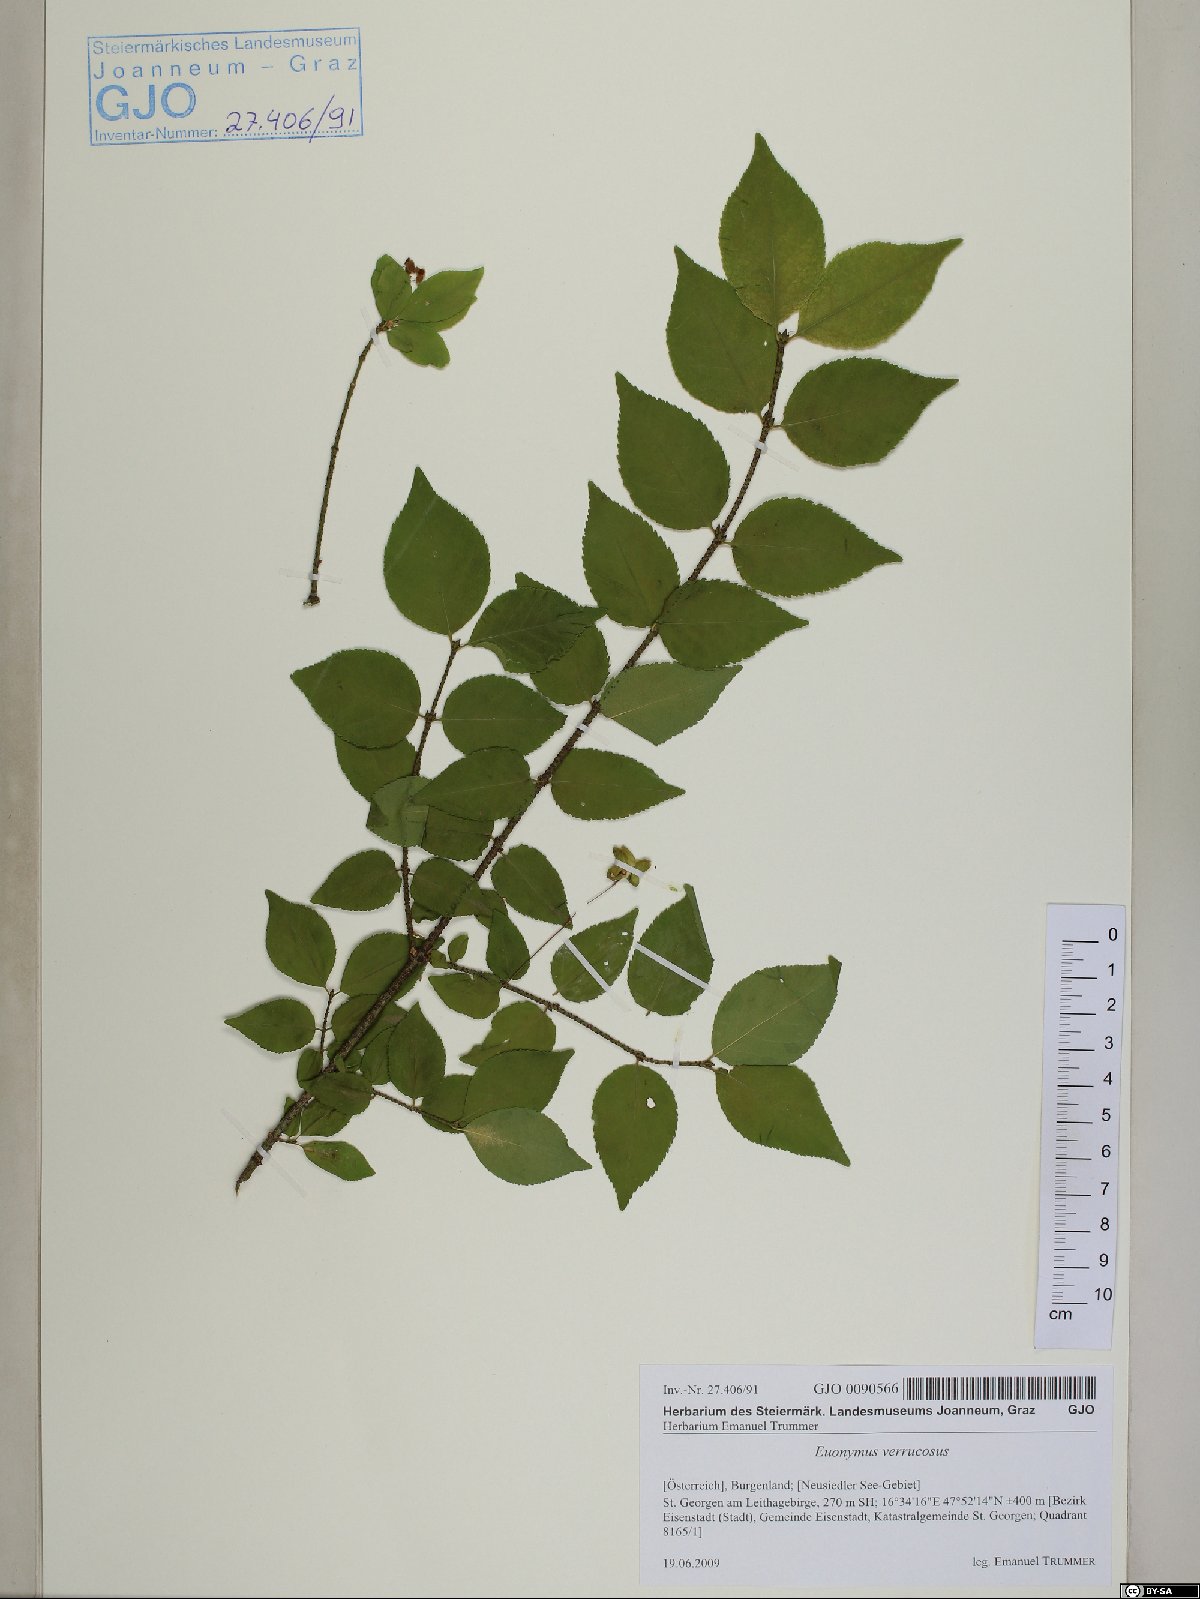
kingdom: Plantae
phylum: Tracheophyta
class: Magnoliopsida
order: Celastrales
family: Celastraceae
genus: Euonymus
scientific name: Euonymus verrucosus
